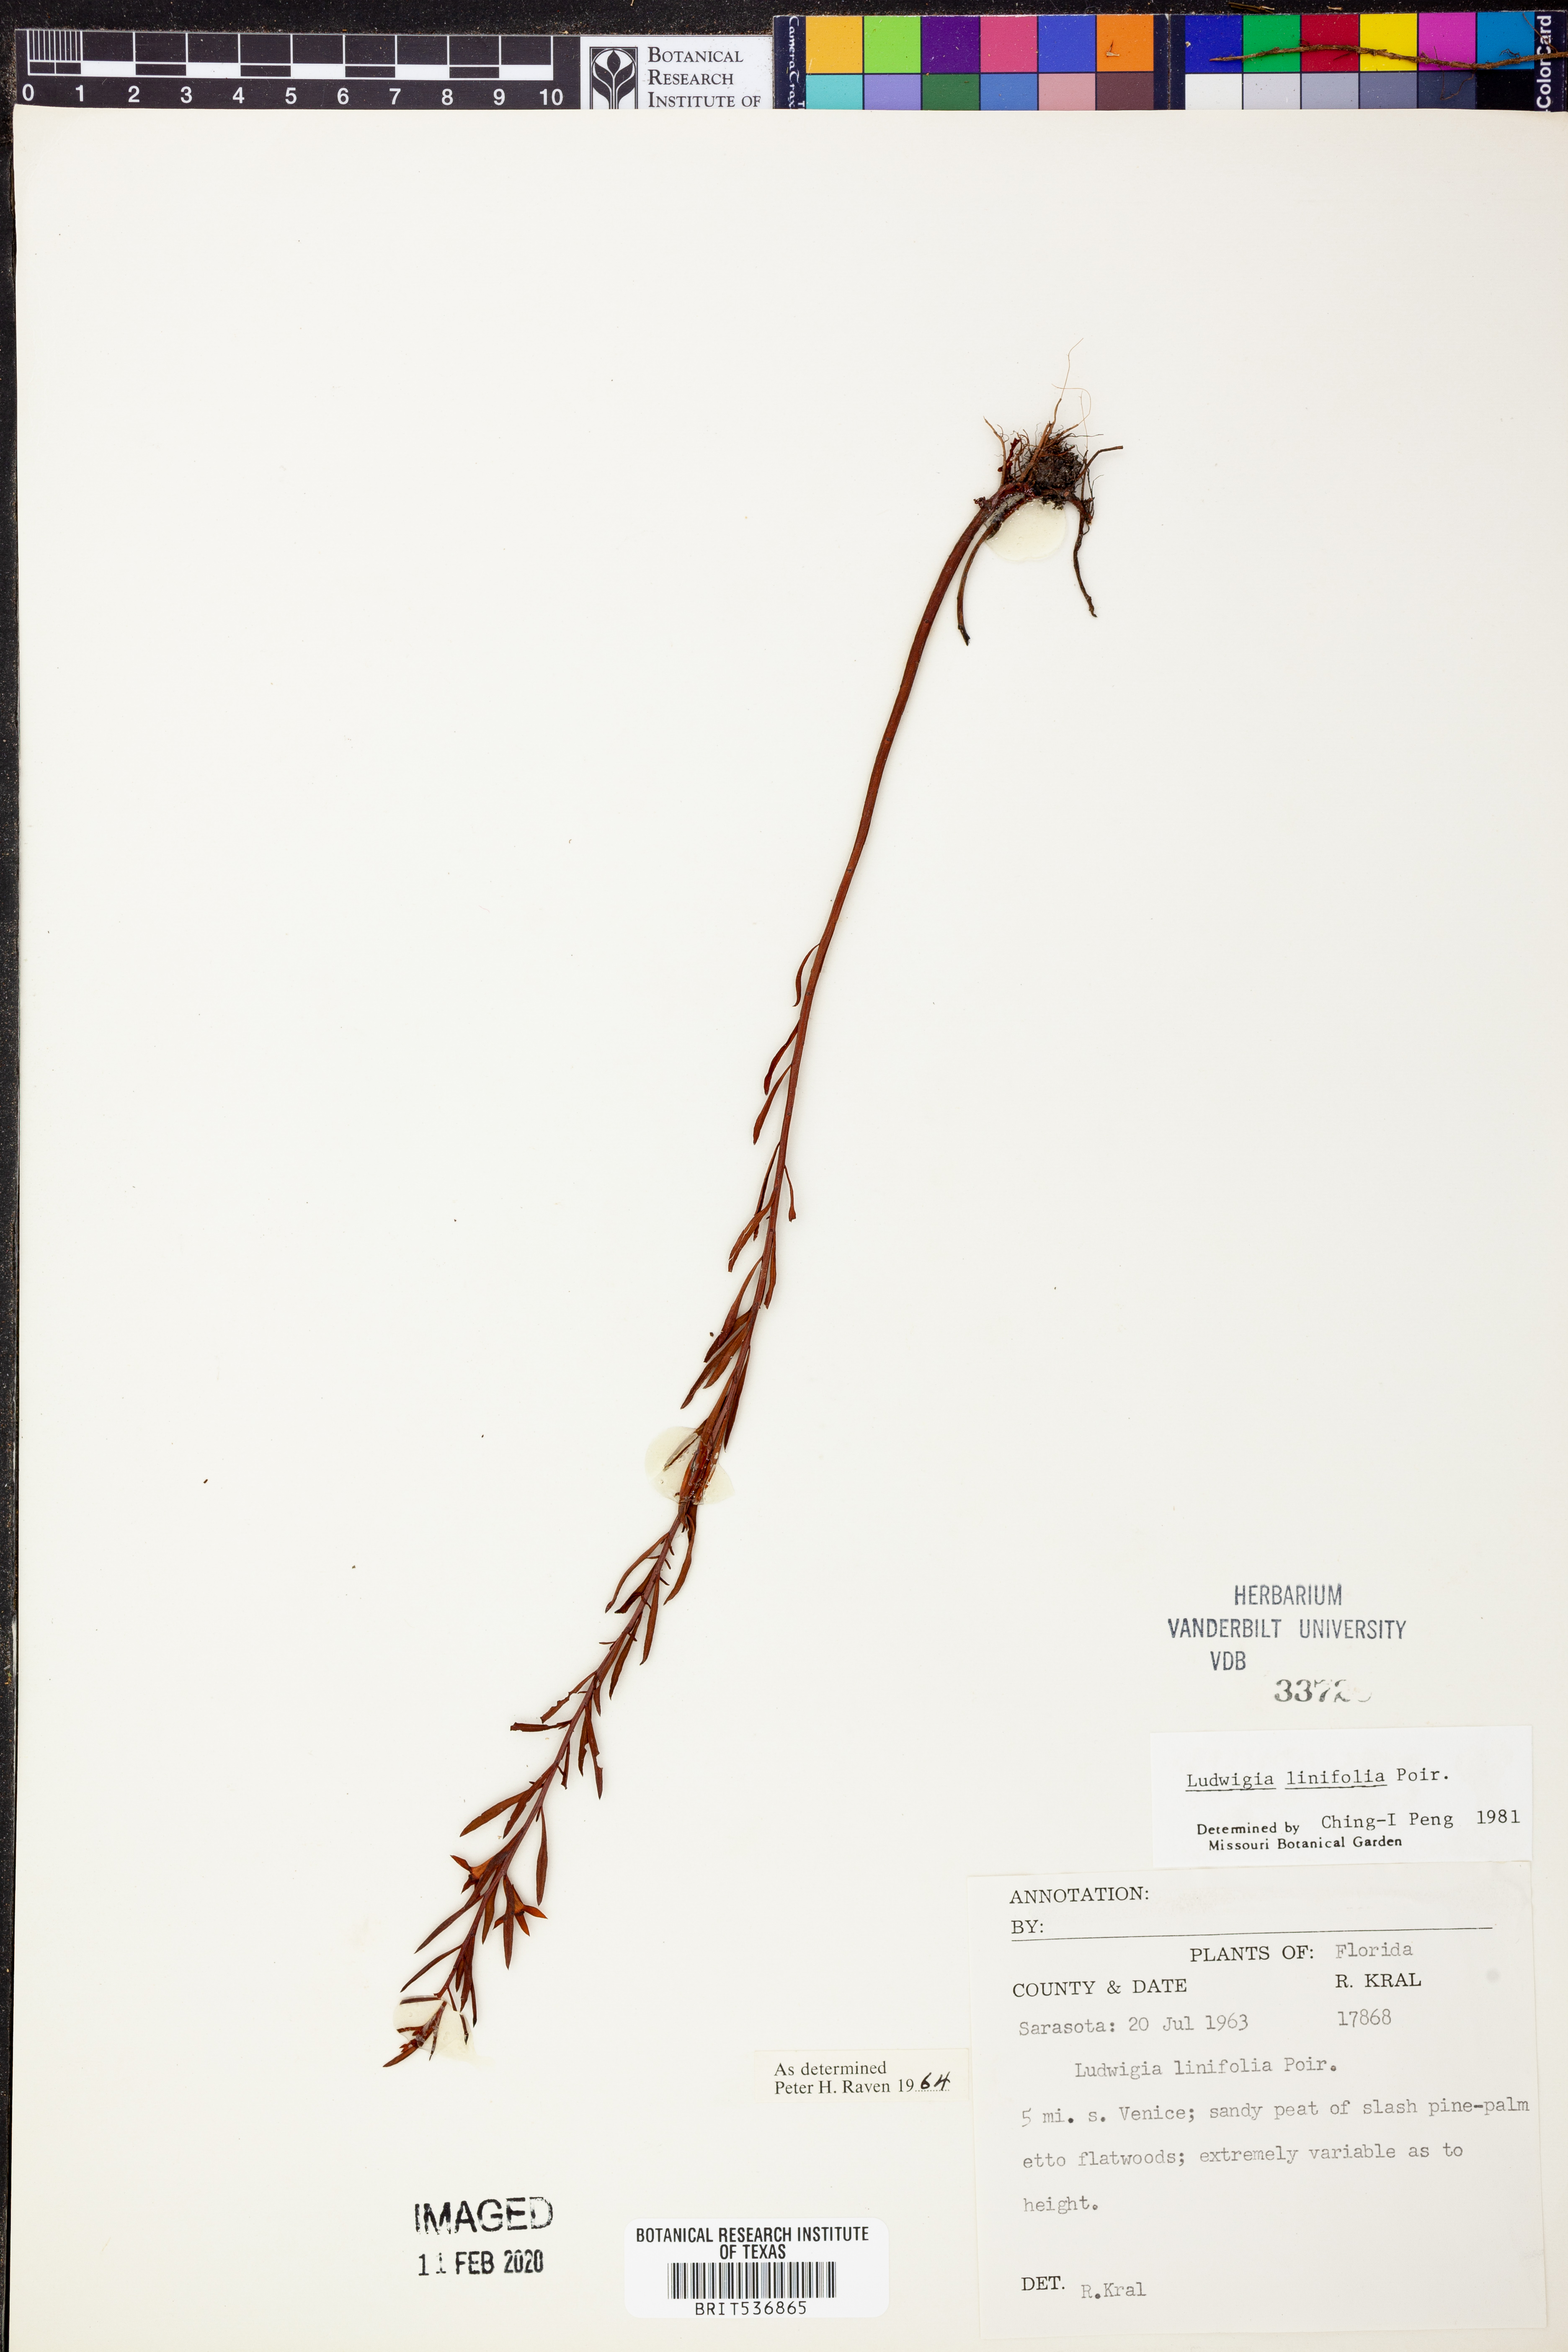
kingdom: Plantae
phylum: Tracheophyta
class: Magnoliopsida
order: Myrtales
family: Onagraceae
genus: Ludwigia
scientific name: Ludwigia linifolia
